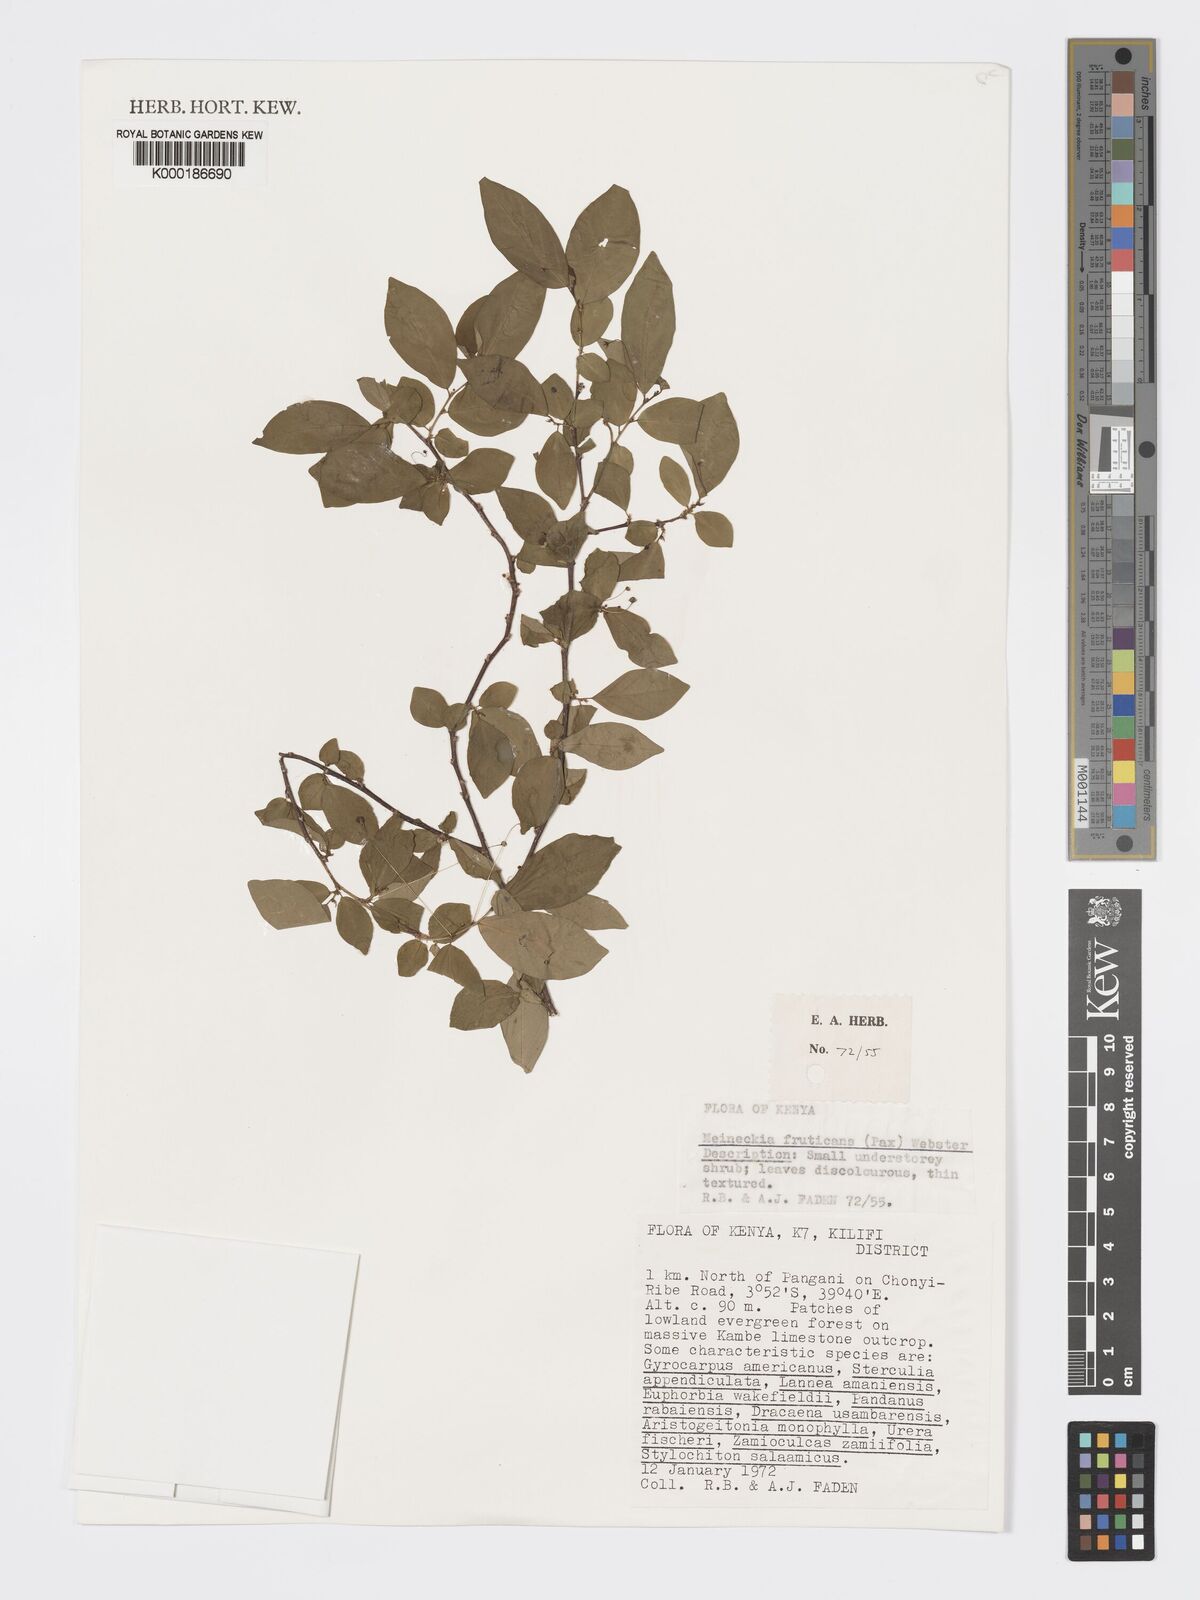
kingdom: Plantae
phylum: Tracheophyta
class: Magnoliopsida
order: Malpighiales
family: Phyllanthaceae
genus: Meineckia
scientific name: Meineckia fruticans
